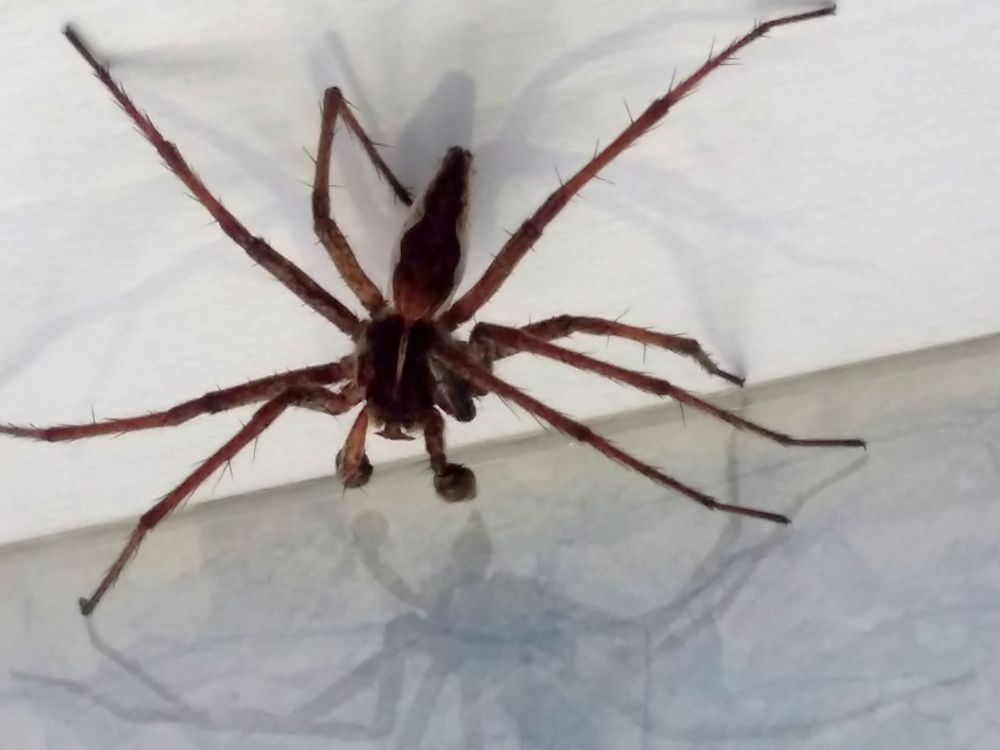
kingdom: Animalia
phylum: Arthropoda
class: Arachnida
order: Araneae
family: Pisauridae
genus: Pisaura
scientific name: Pisaura mirabilis
